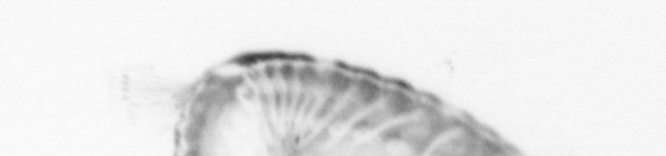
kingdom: Animalia
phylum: Annelida
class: Polychaeta
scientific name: Polychaeta
